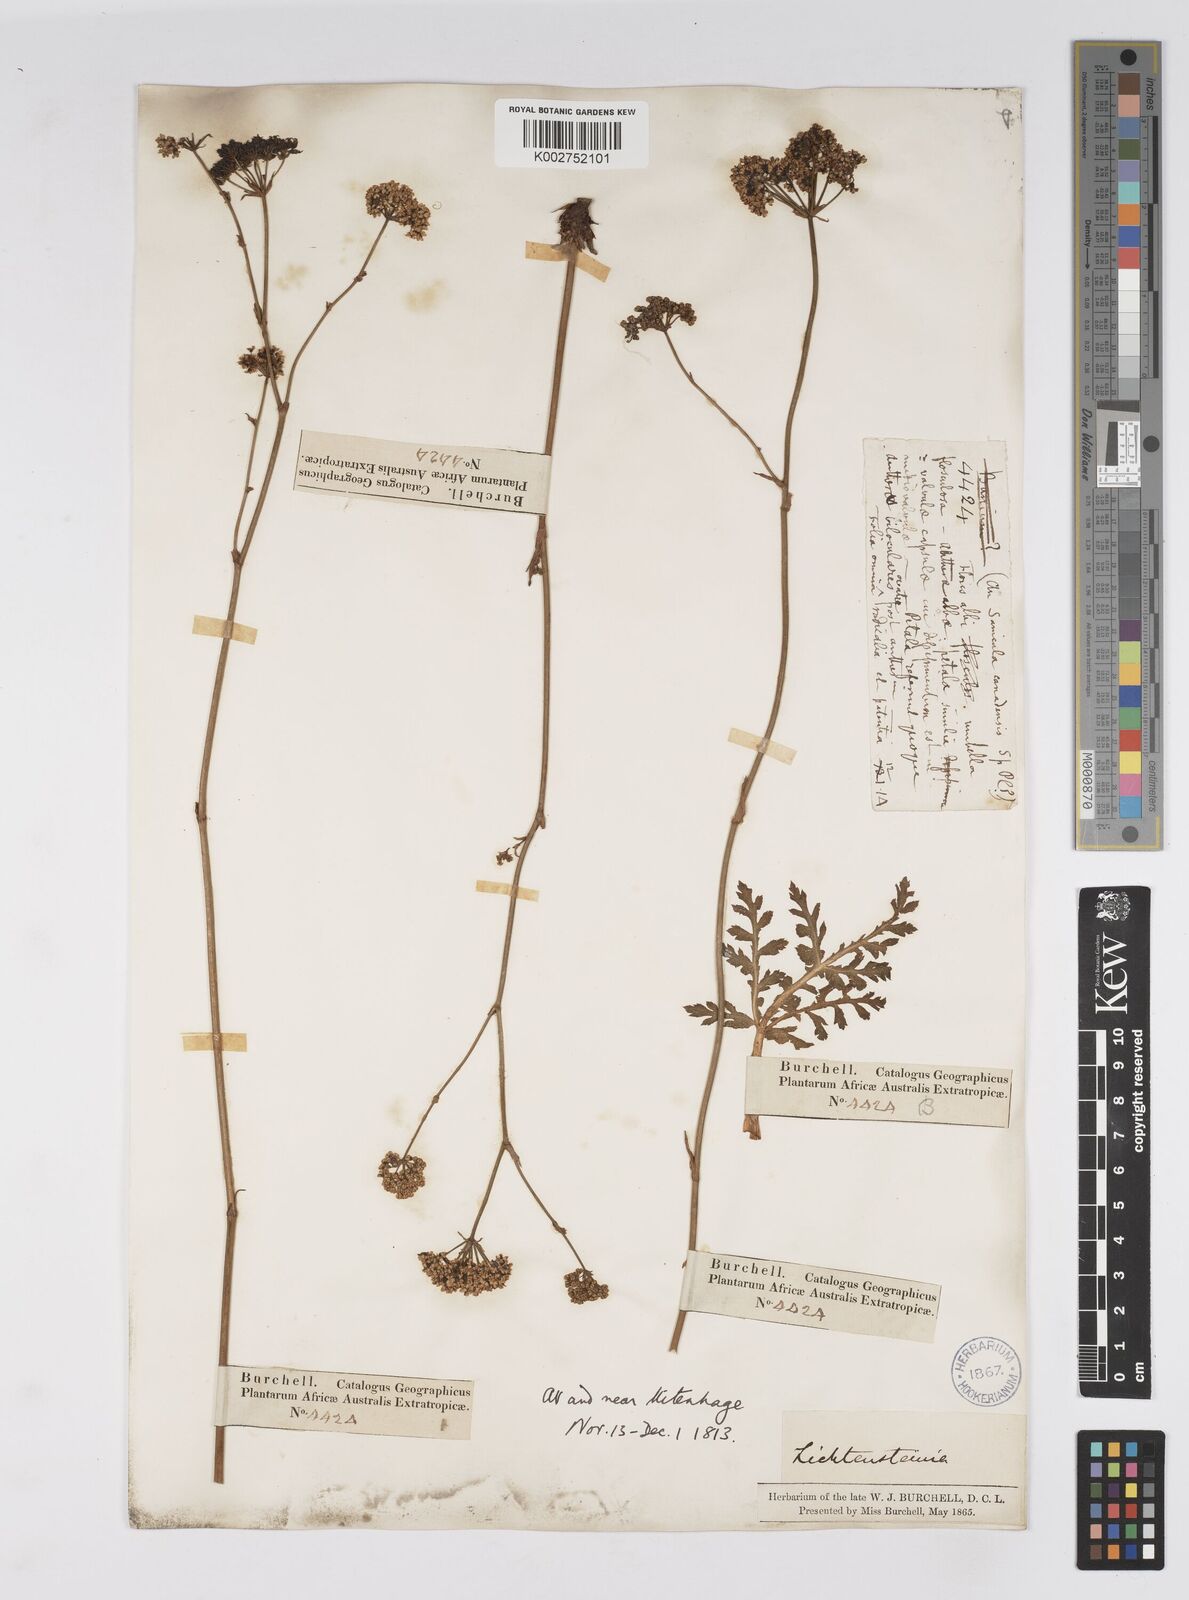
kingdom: Plantae
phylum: Tracheophyta
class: Magnoliopsida
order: Apiales
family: Apiaceae
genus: Lichtensteinia
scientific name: Lichtensteinia interrupta
